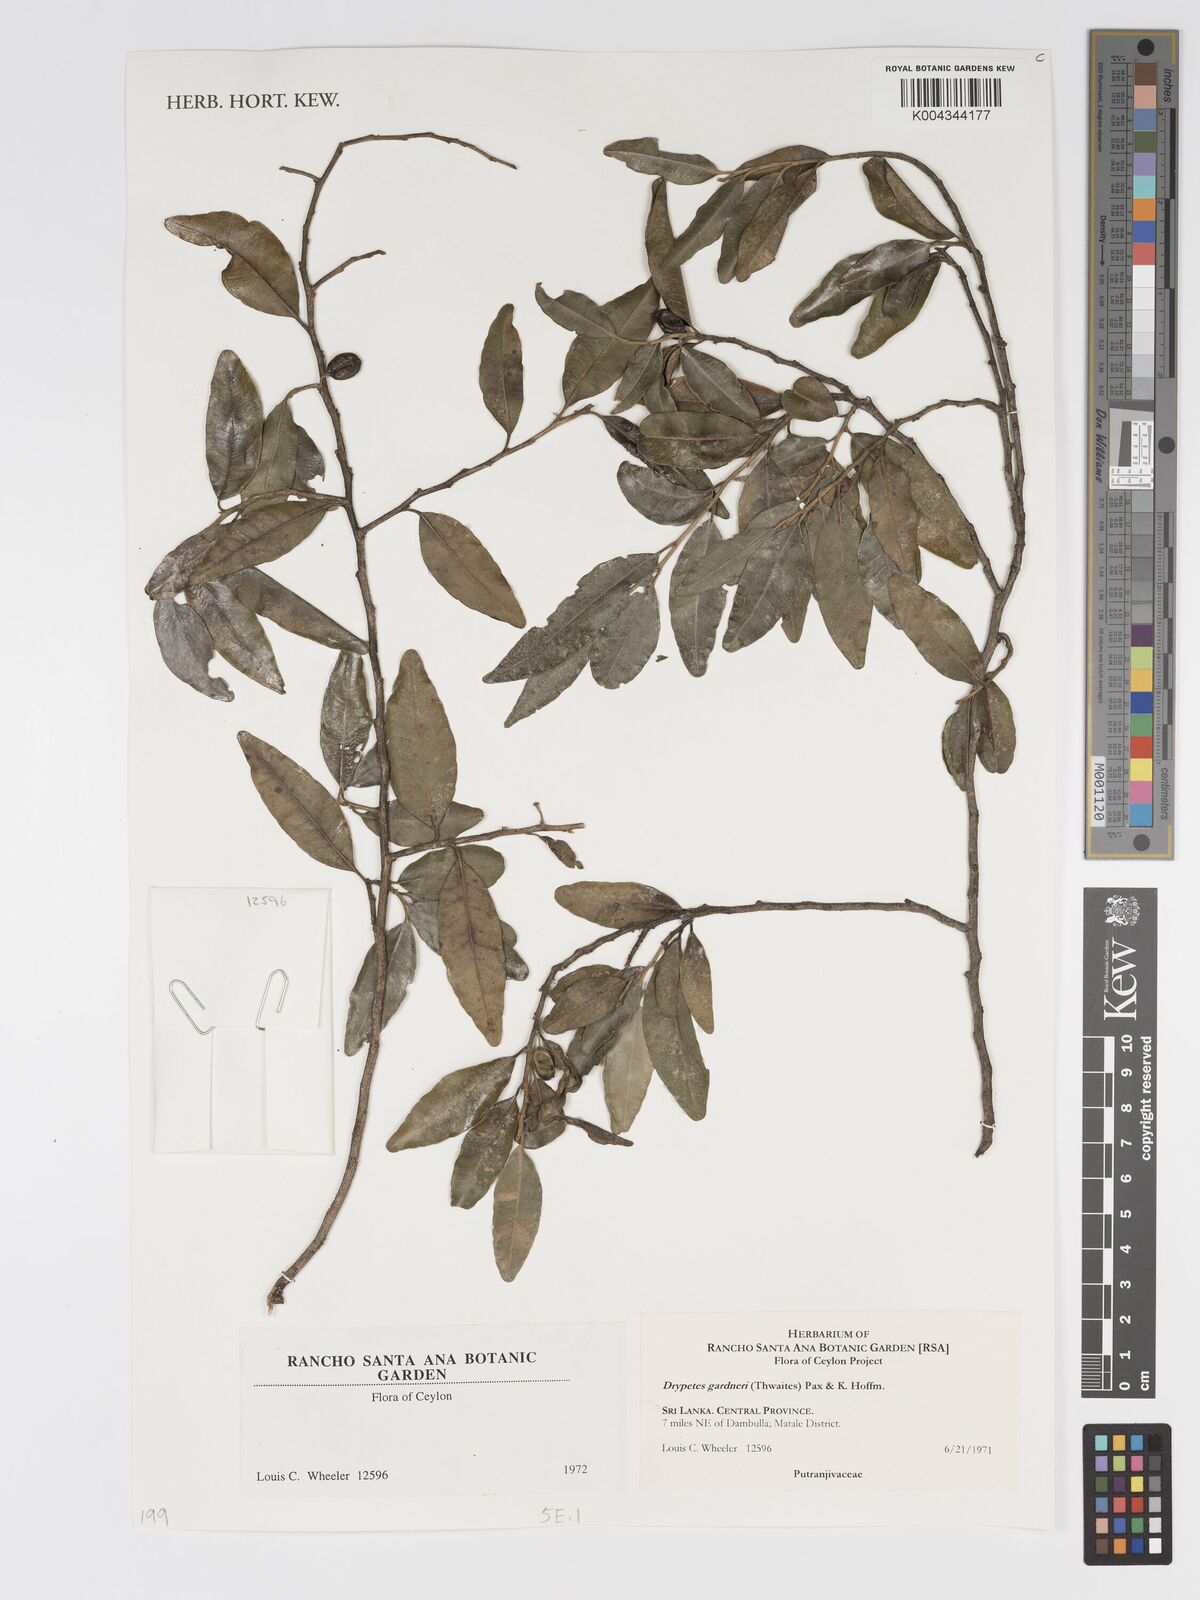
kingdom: Plantae
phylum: Tracheophyta
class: Magnoliopsida
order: Malpighiales
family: Putranjivaceae
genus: Drypetes
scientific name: Drypetes gardneri
